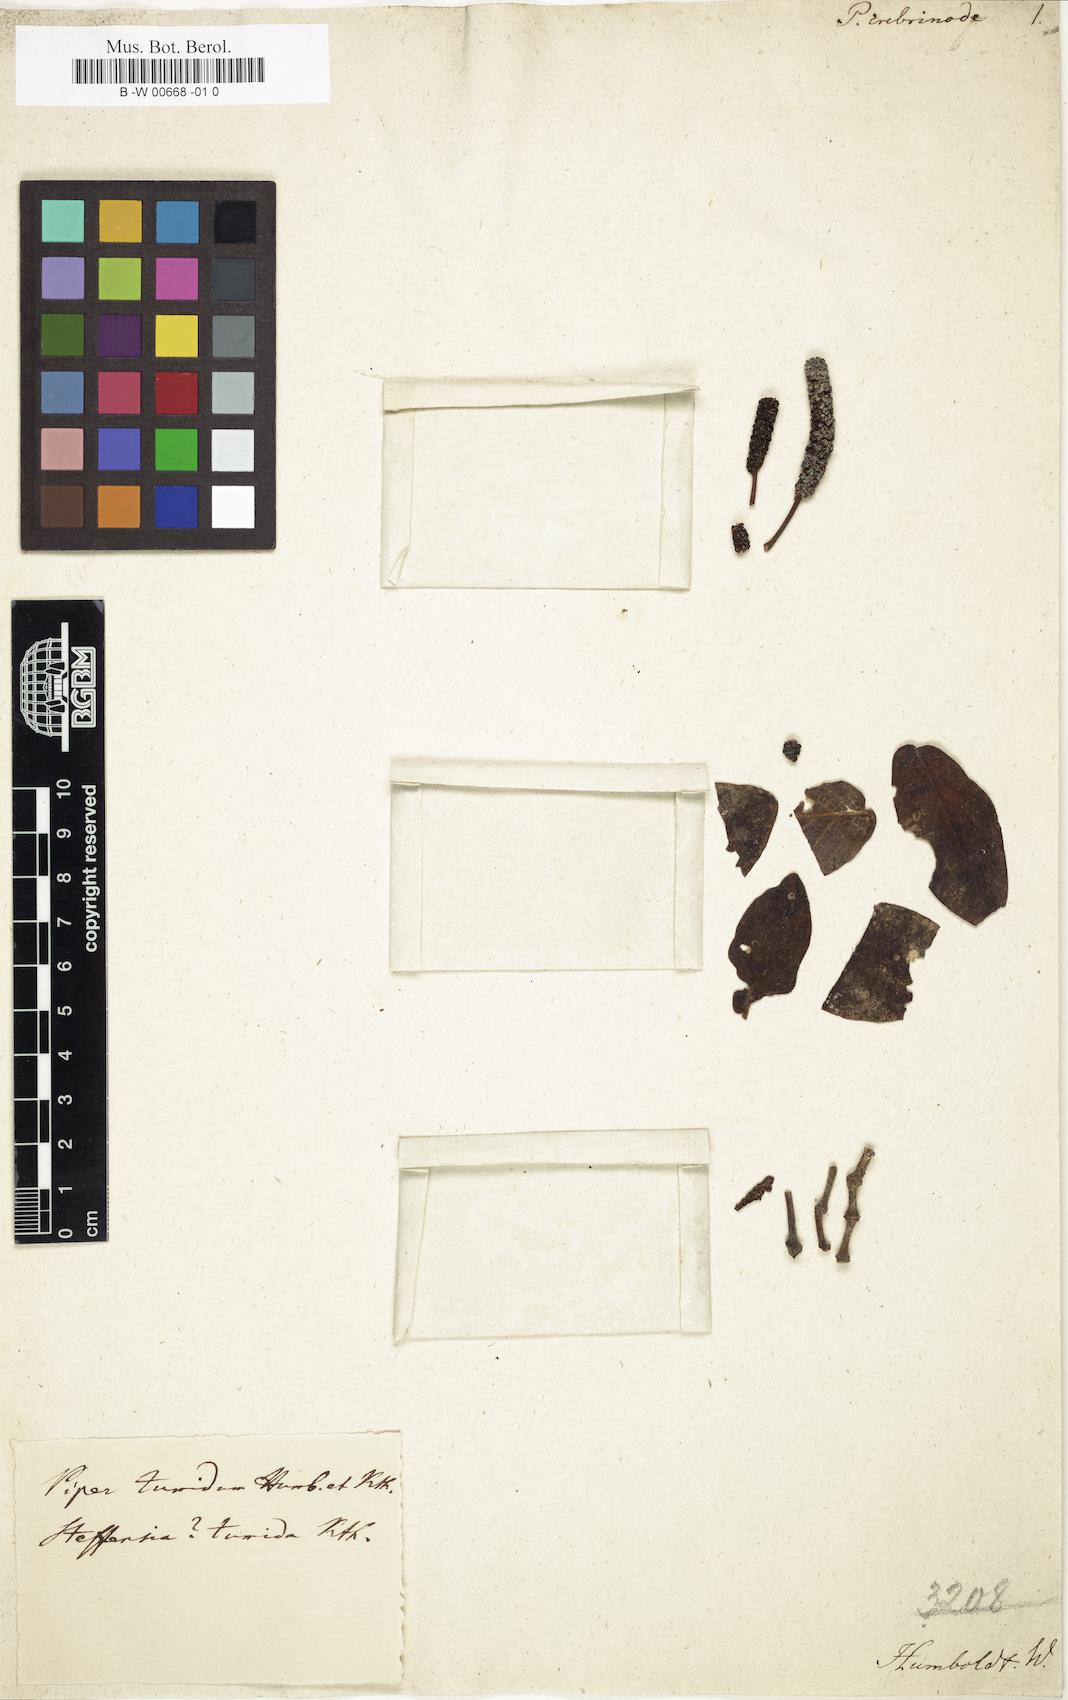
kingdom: Plantae
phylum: Tracheophyta
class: Magnoliopsida
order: Piperales
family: Piperaceae
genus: Piper
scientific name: Piper tumidum
